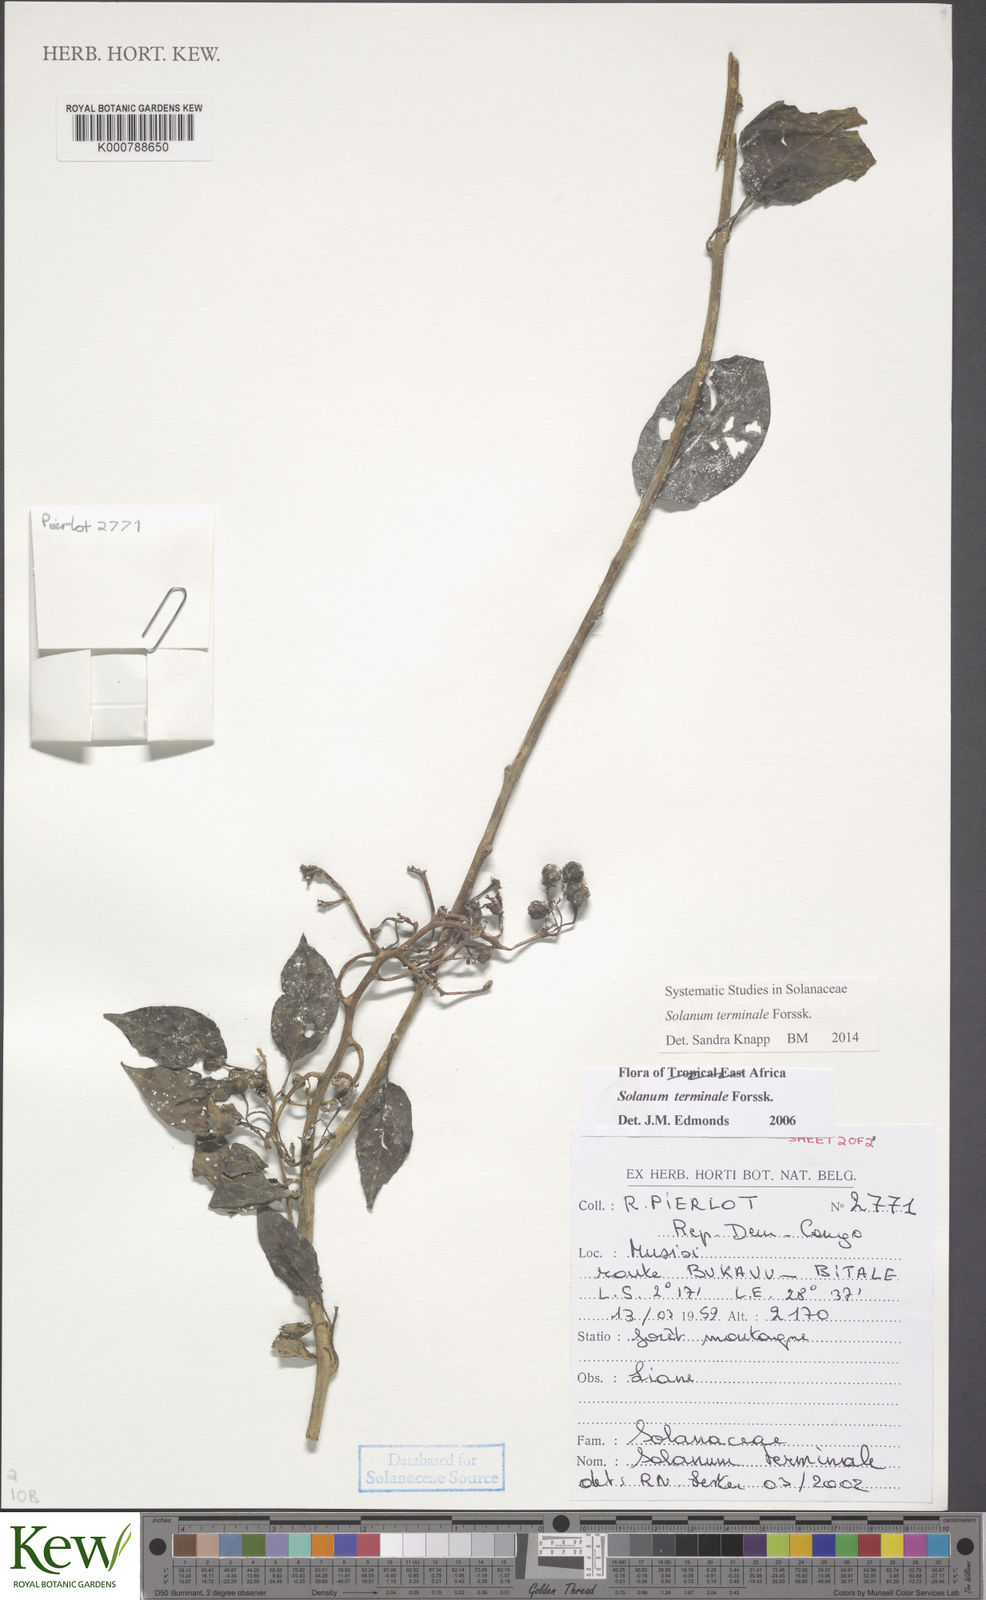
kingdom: Plantae
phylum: Tracheophyta
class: Magnoliopsida
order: Solanales
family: Solanaceae
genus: Solanum
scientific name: Solanum terminale
